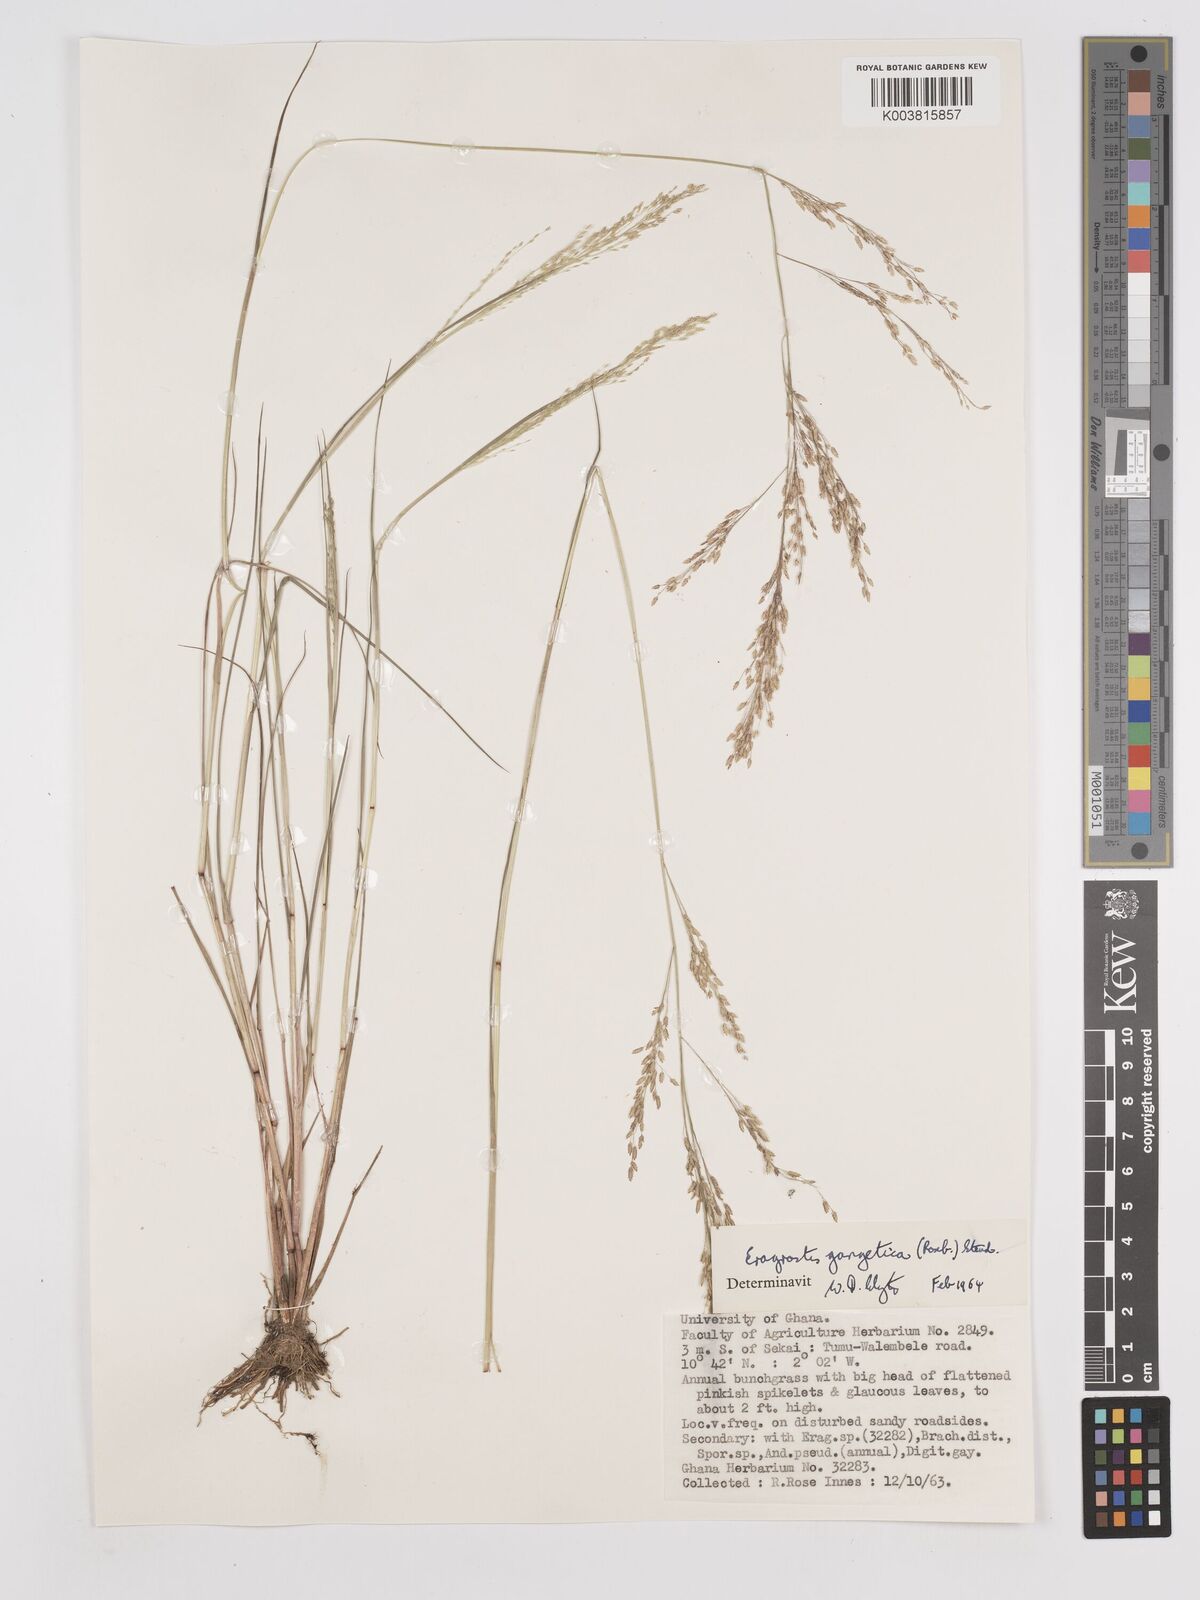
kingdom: Plantae
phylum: Tracheophyta
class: Liliopsida
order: Poales
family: Poaceae
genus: Eragrostis
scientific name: Eragrostis gangetica
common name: Slimflower lovegrass
